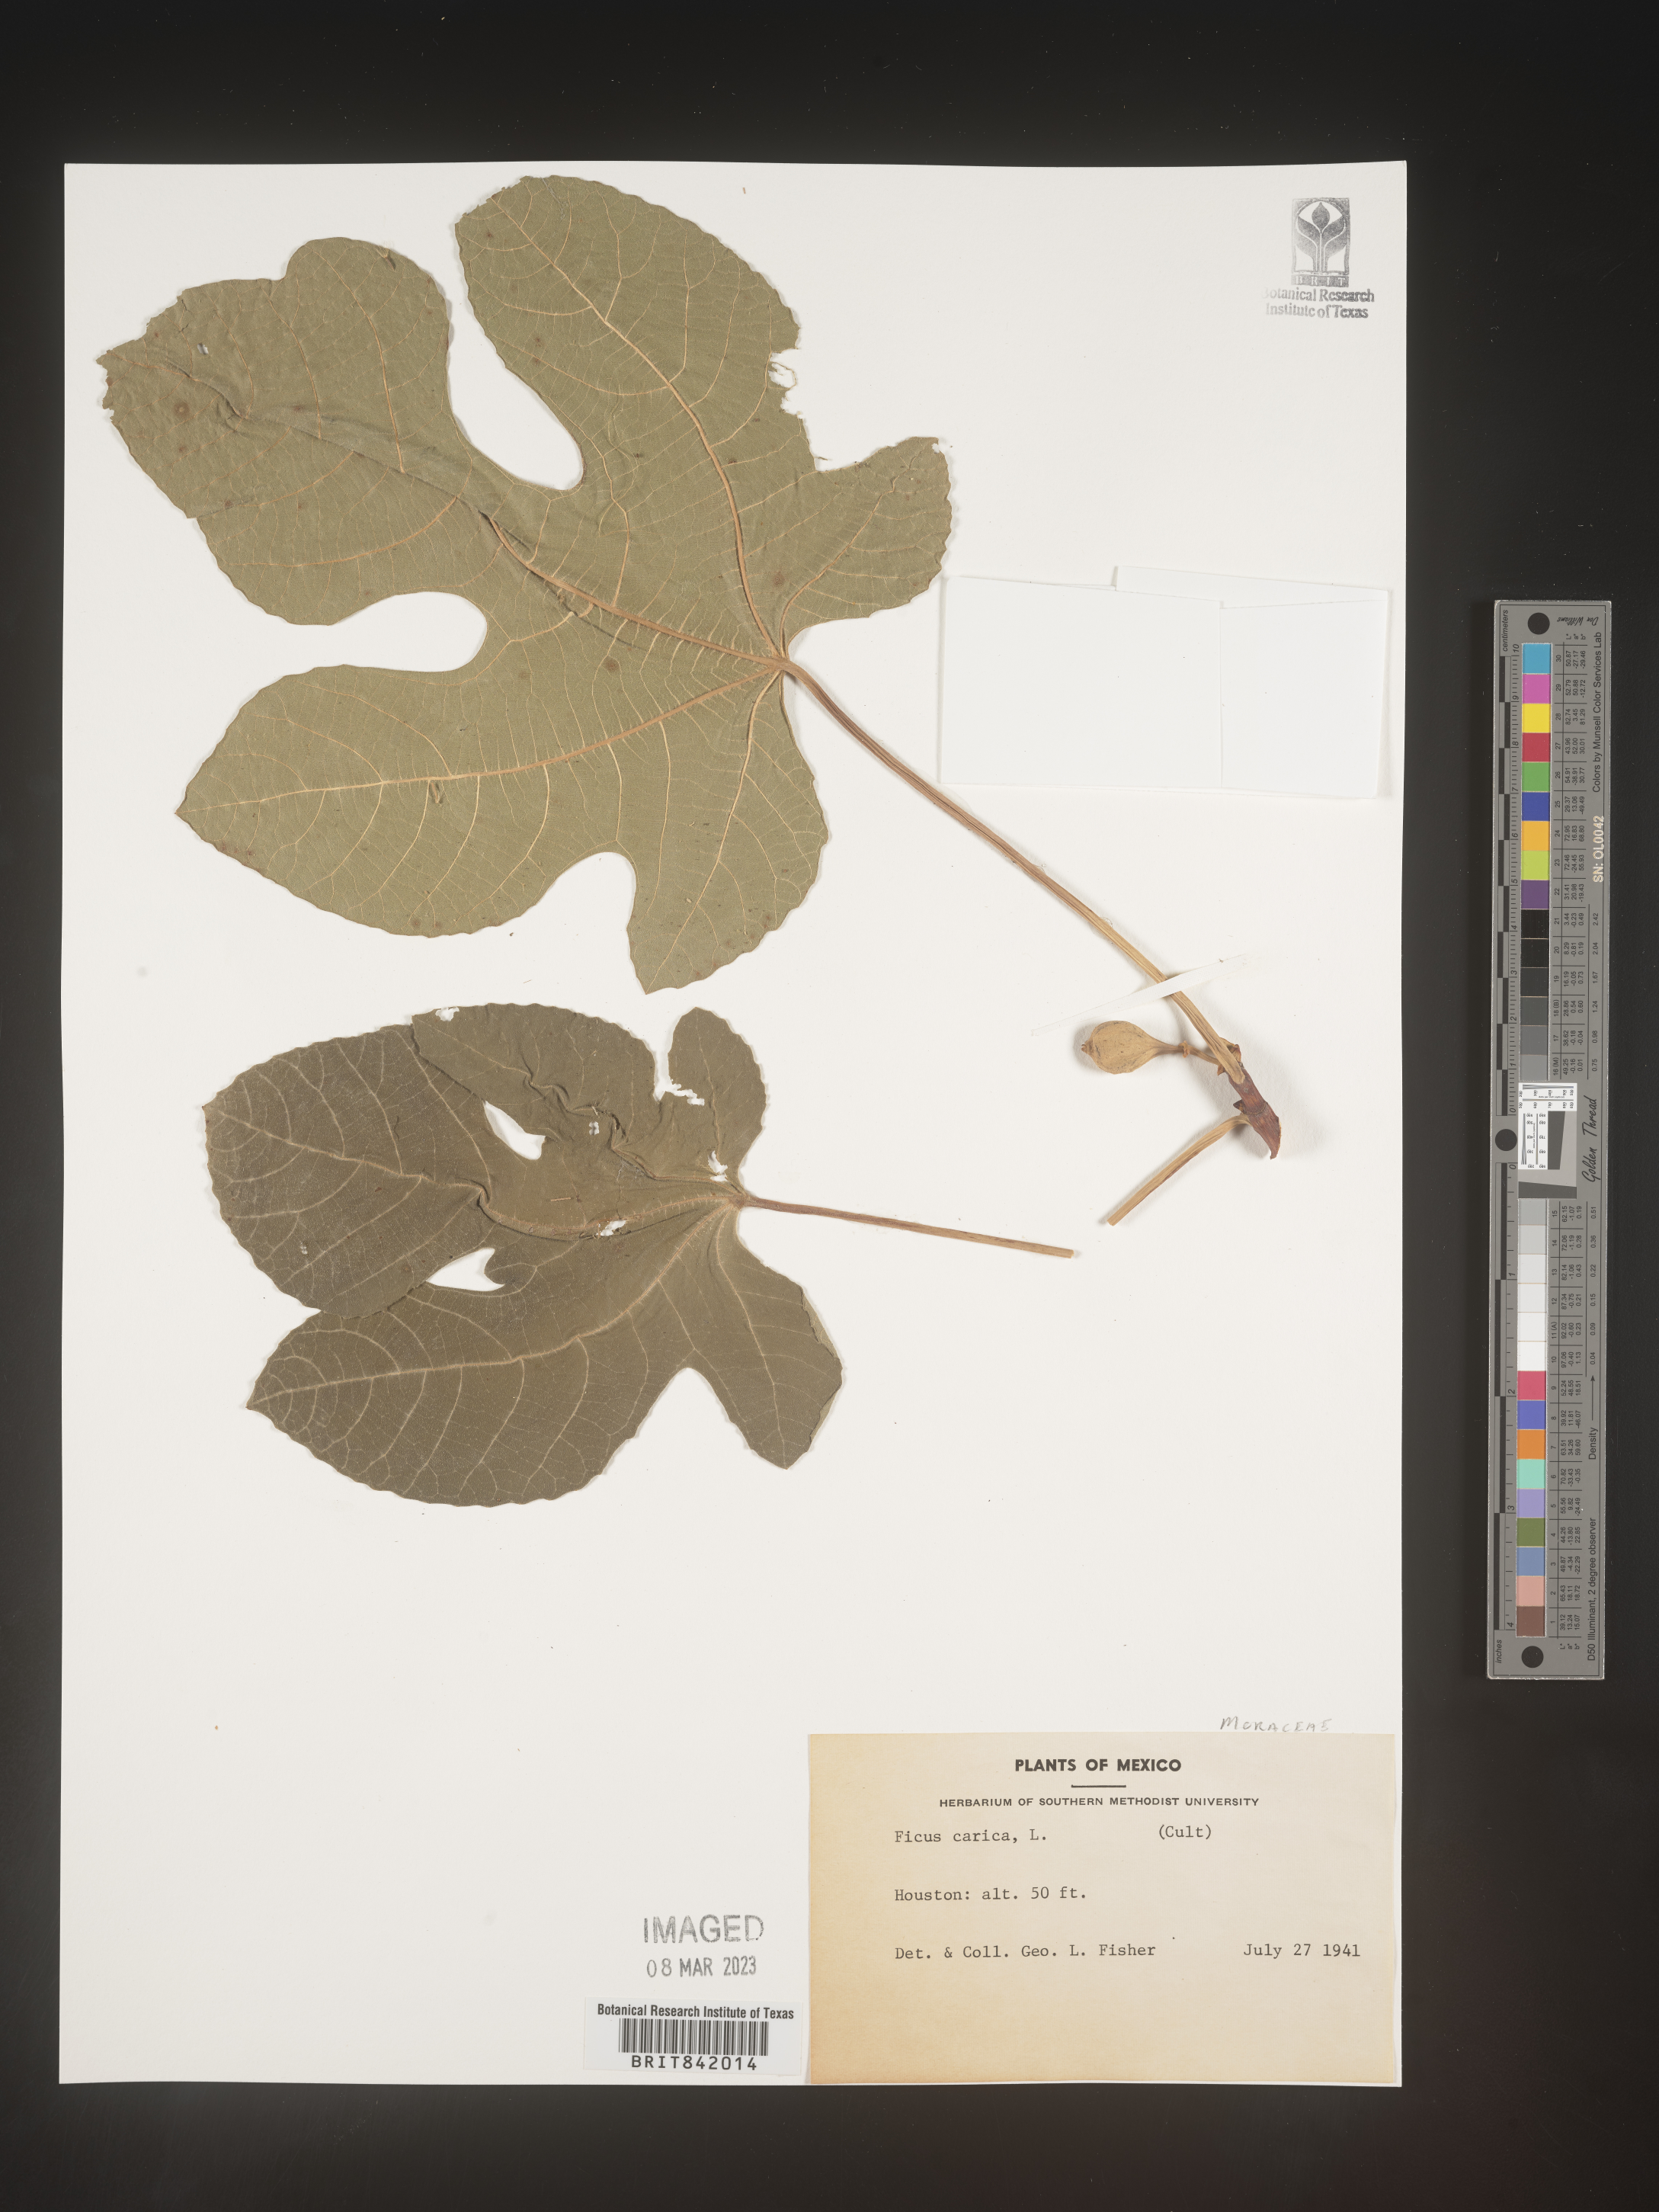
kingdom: Plantae
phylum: Tracheophyta
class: Magnoliopsida
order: Rosales
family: Moraceae
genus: Ficus
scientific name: Ficus carica
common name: Fig
